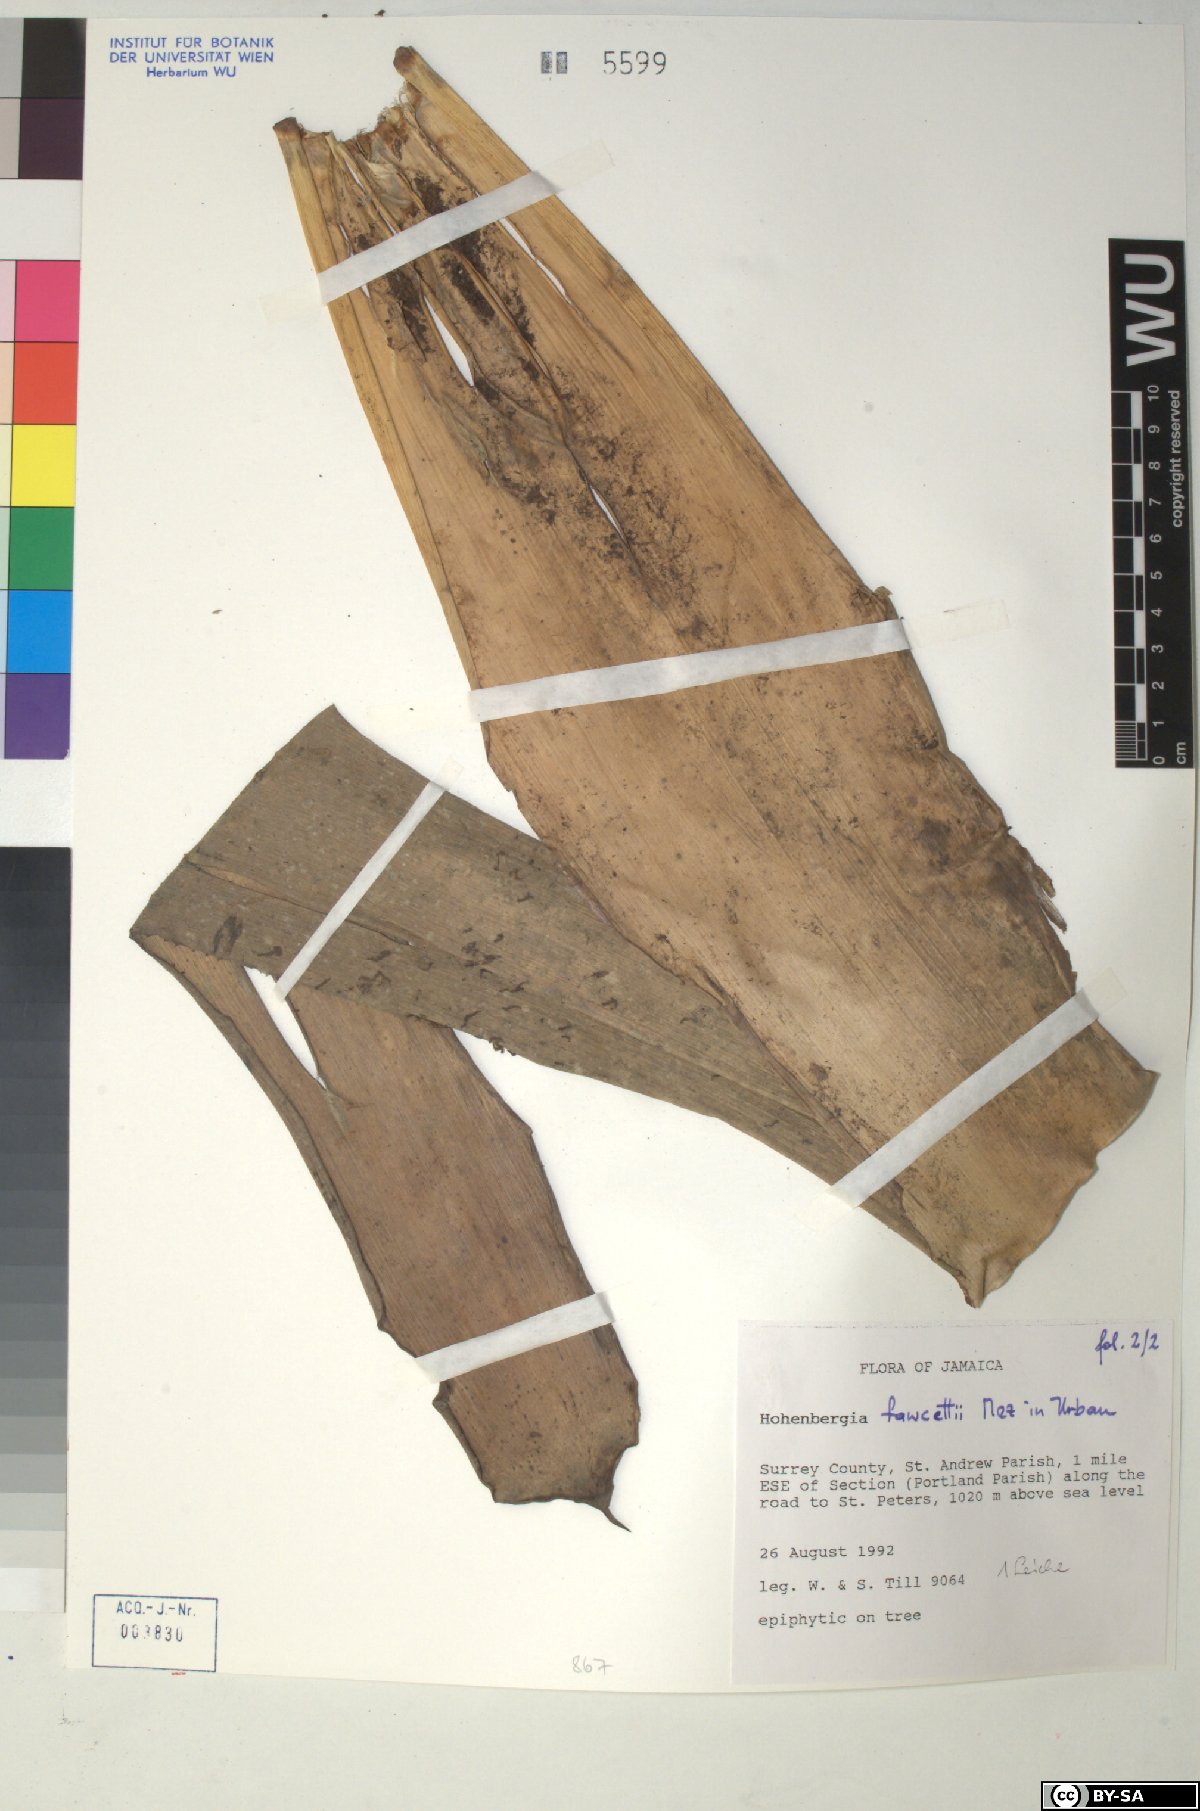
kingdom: Plantae
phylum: Tracheophyta
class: Liliopsida
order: Poales
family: Bromeliaceae
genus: Wittmackia
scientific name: Wittmackia fawcettii
